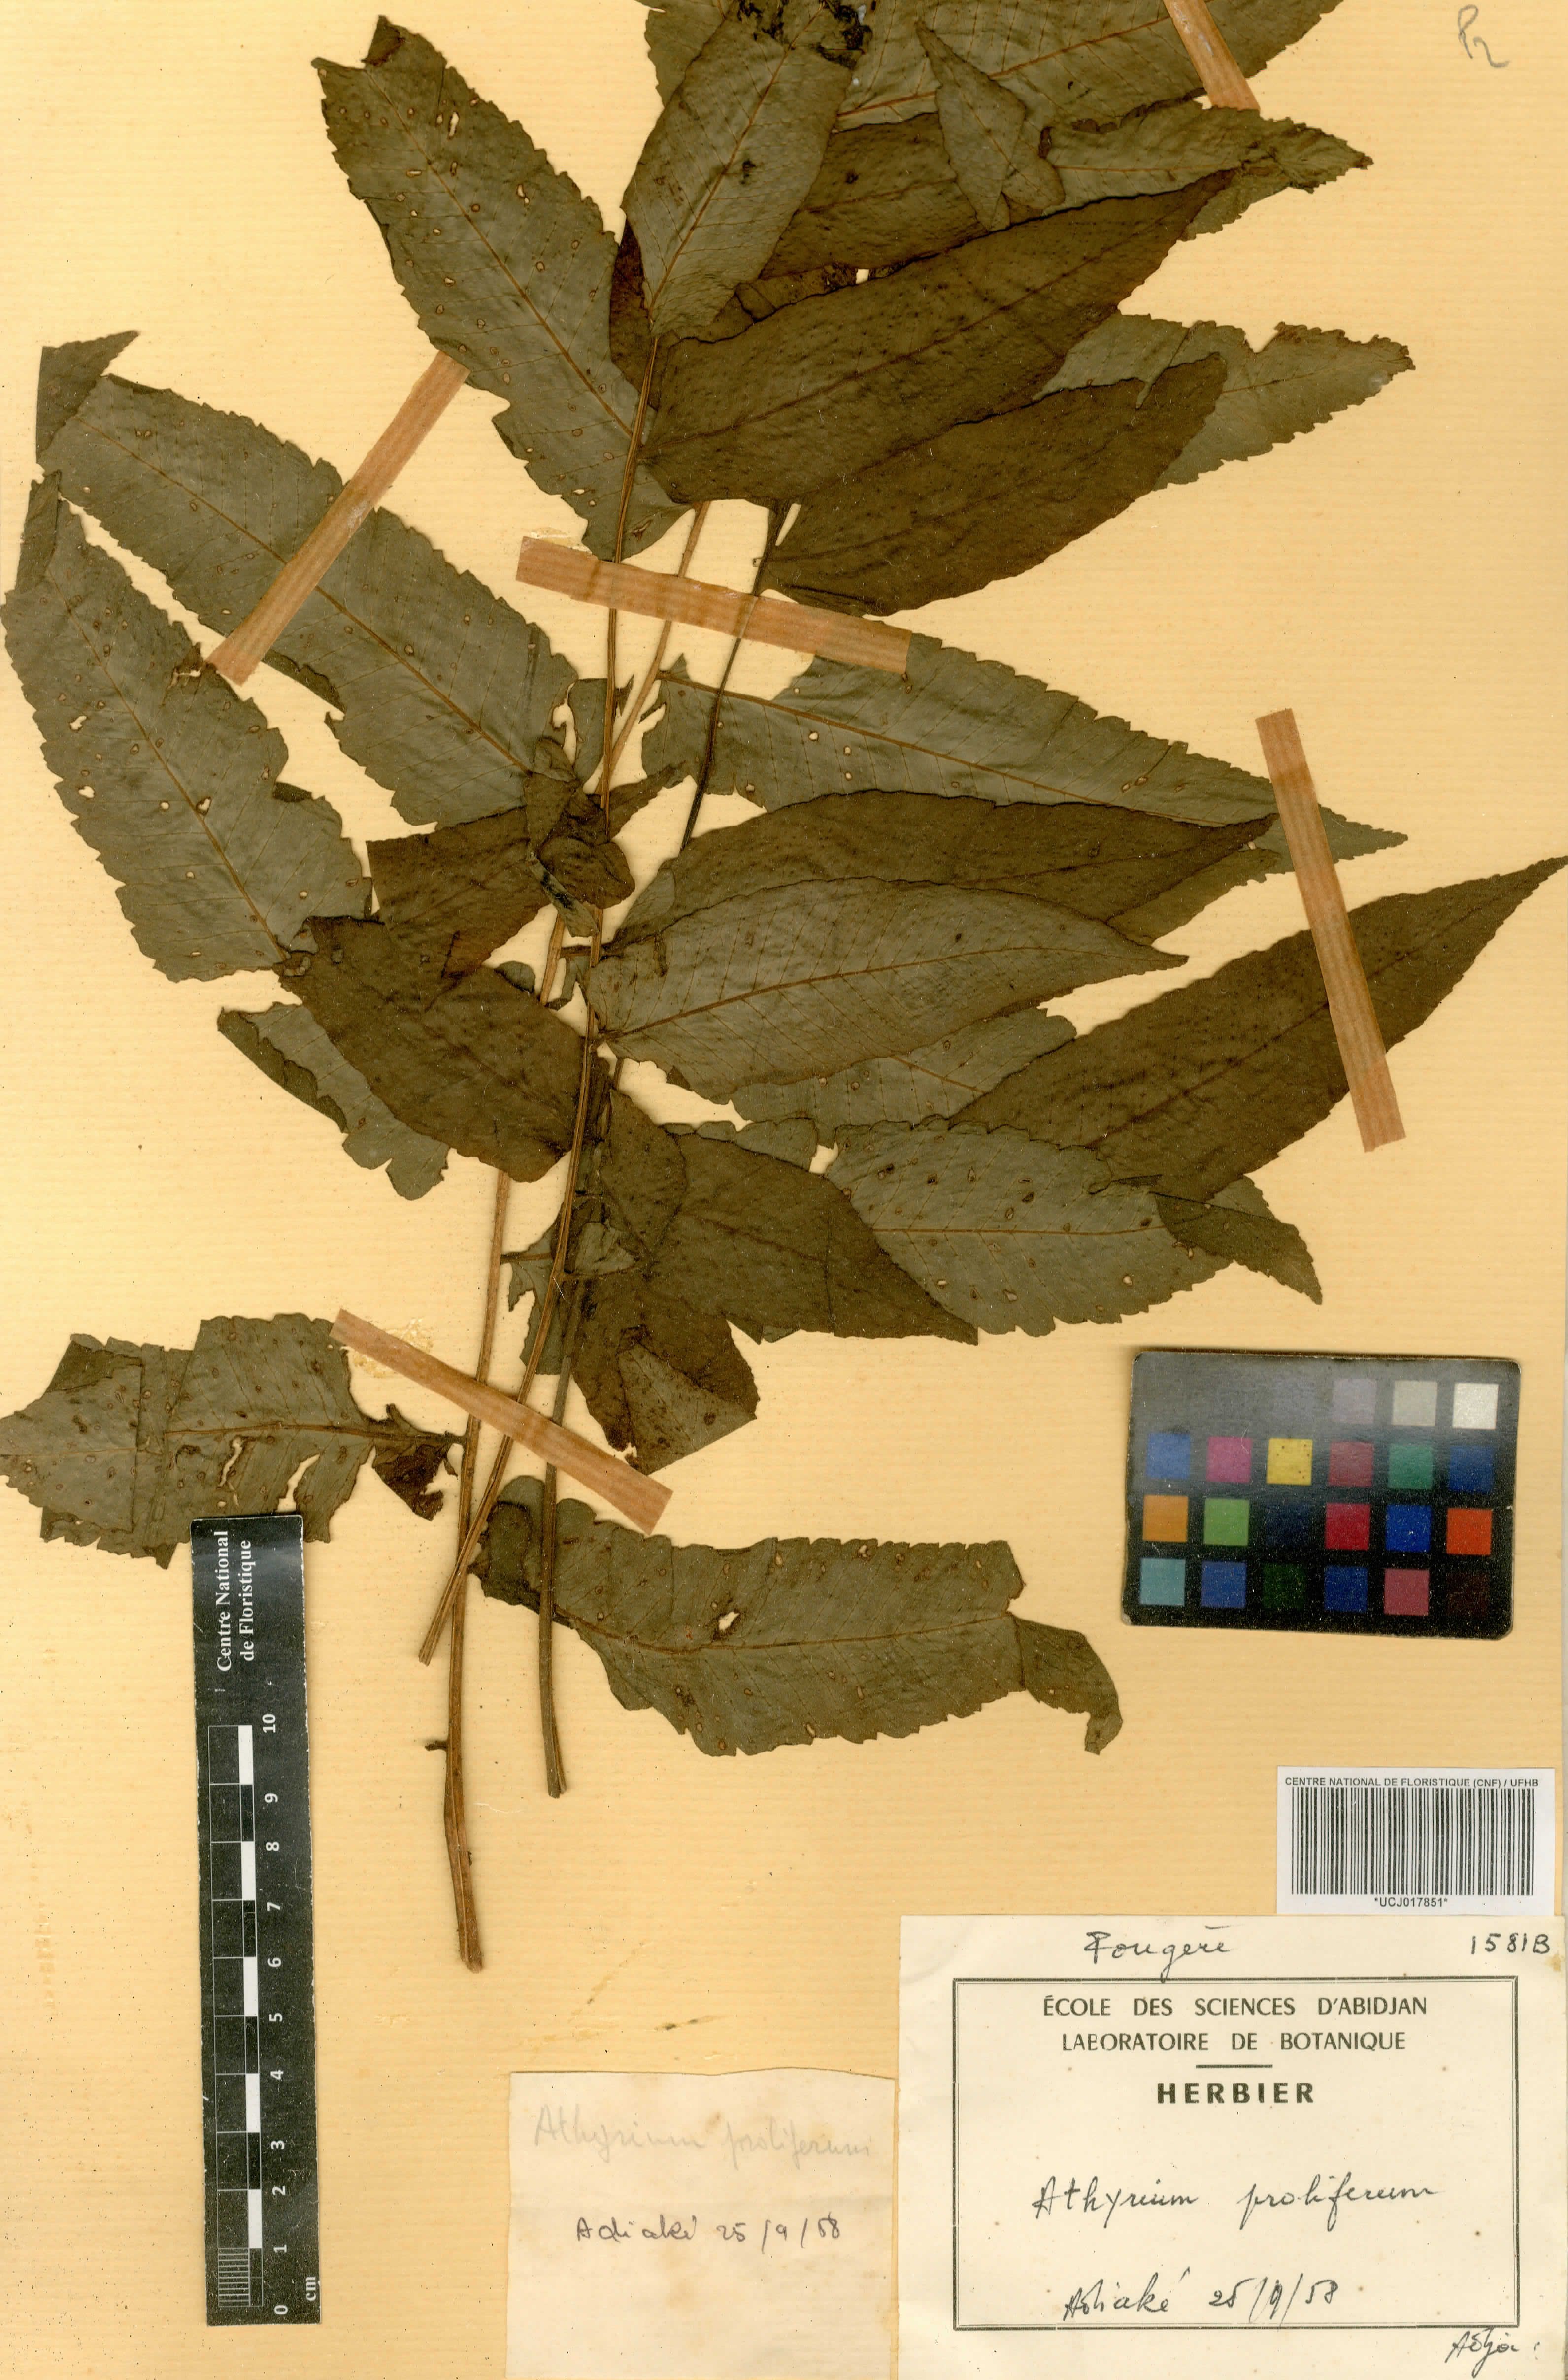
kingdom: Plantae
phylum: Tracheophyta
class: Polypodiopsida
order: Polypodiales
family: Athyriaceae
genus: Diplazium
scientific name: Diplazium proliferum
